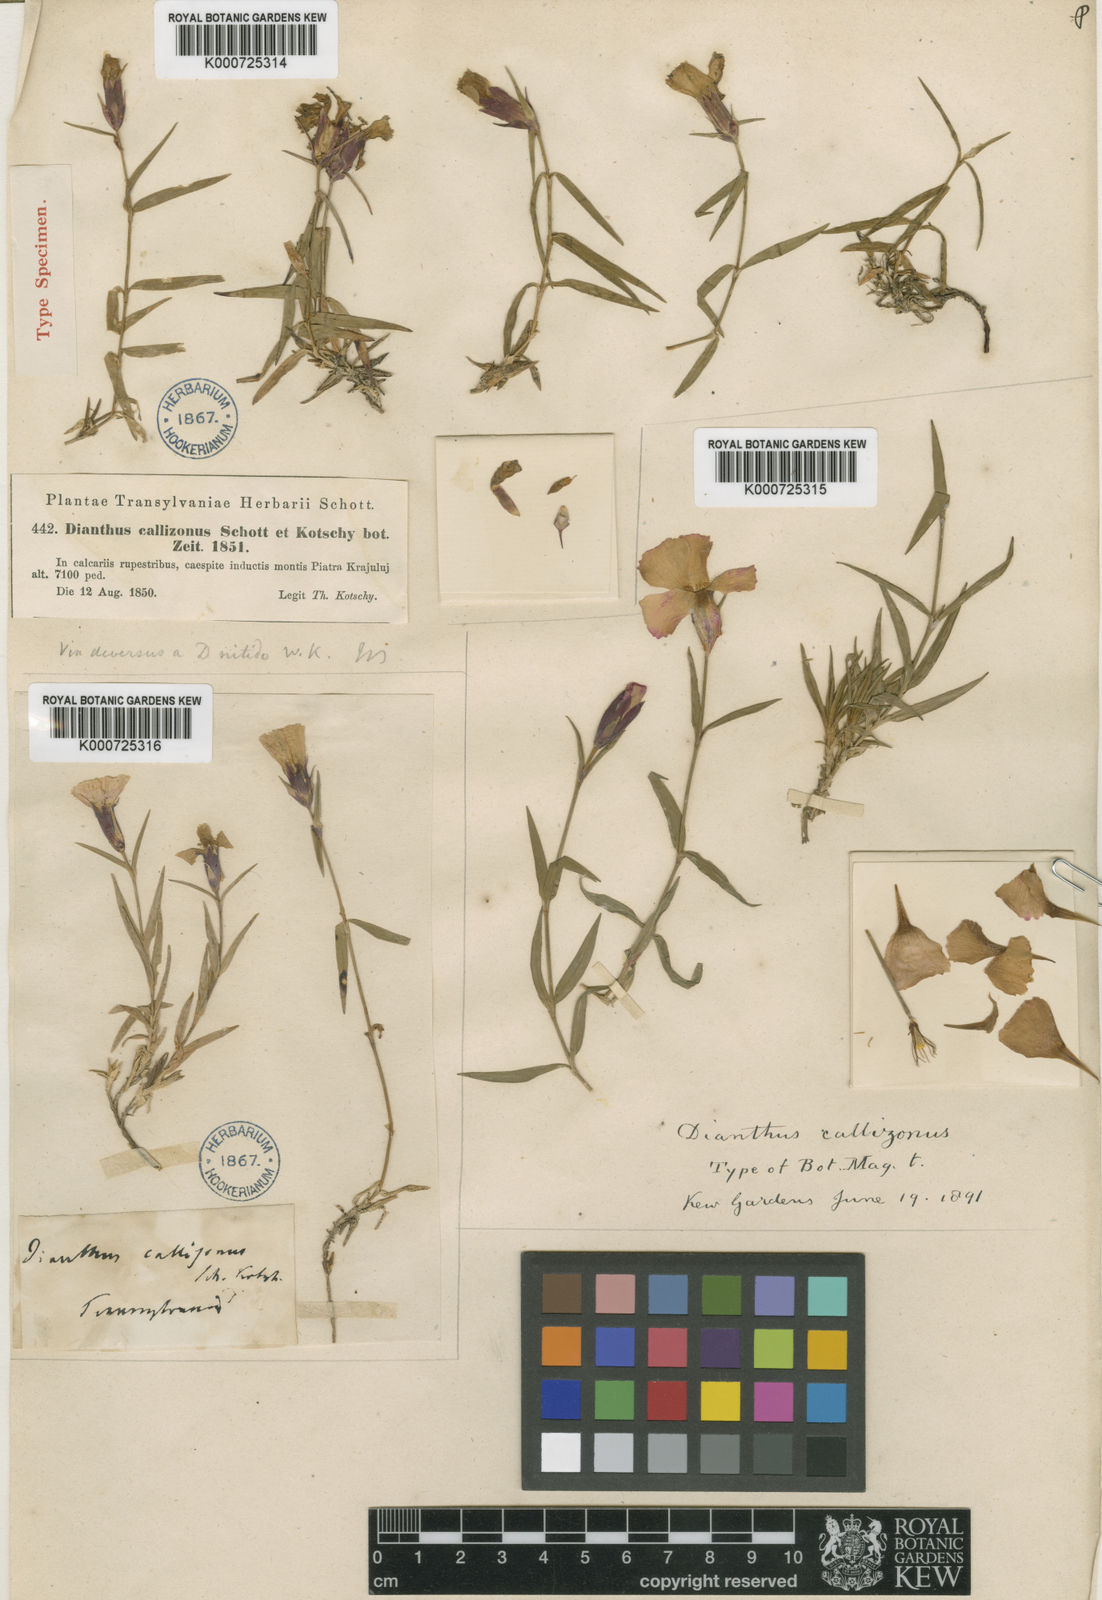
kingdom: Plantae
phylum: Tracheophyta
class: Magnoliopsida
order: Caryophyllales
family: Caryophyllaceae
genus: Dianthus
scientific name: Dianthus callizonus
